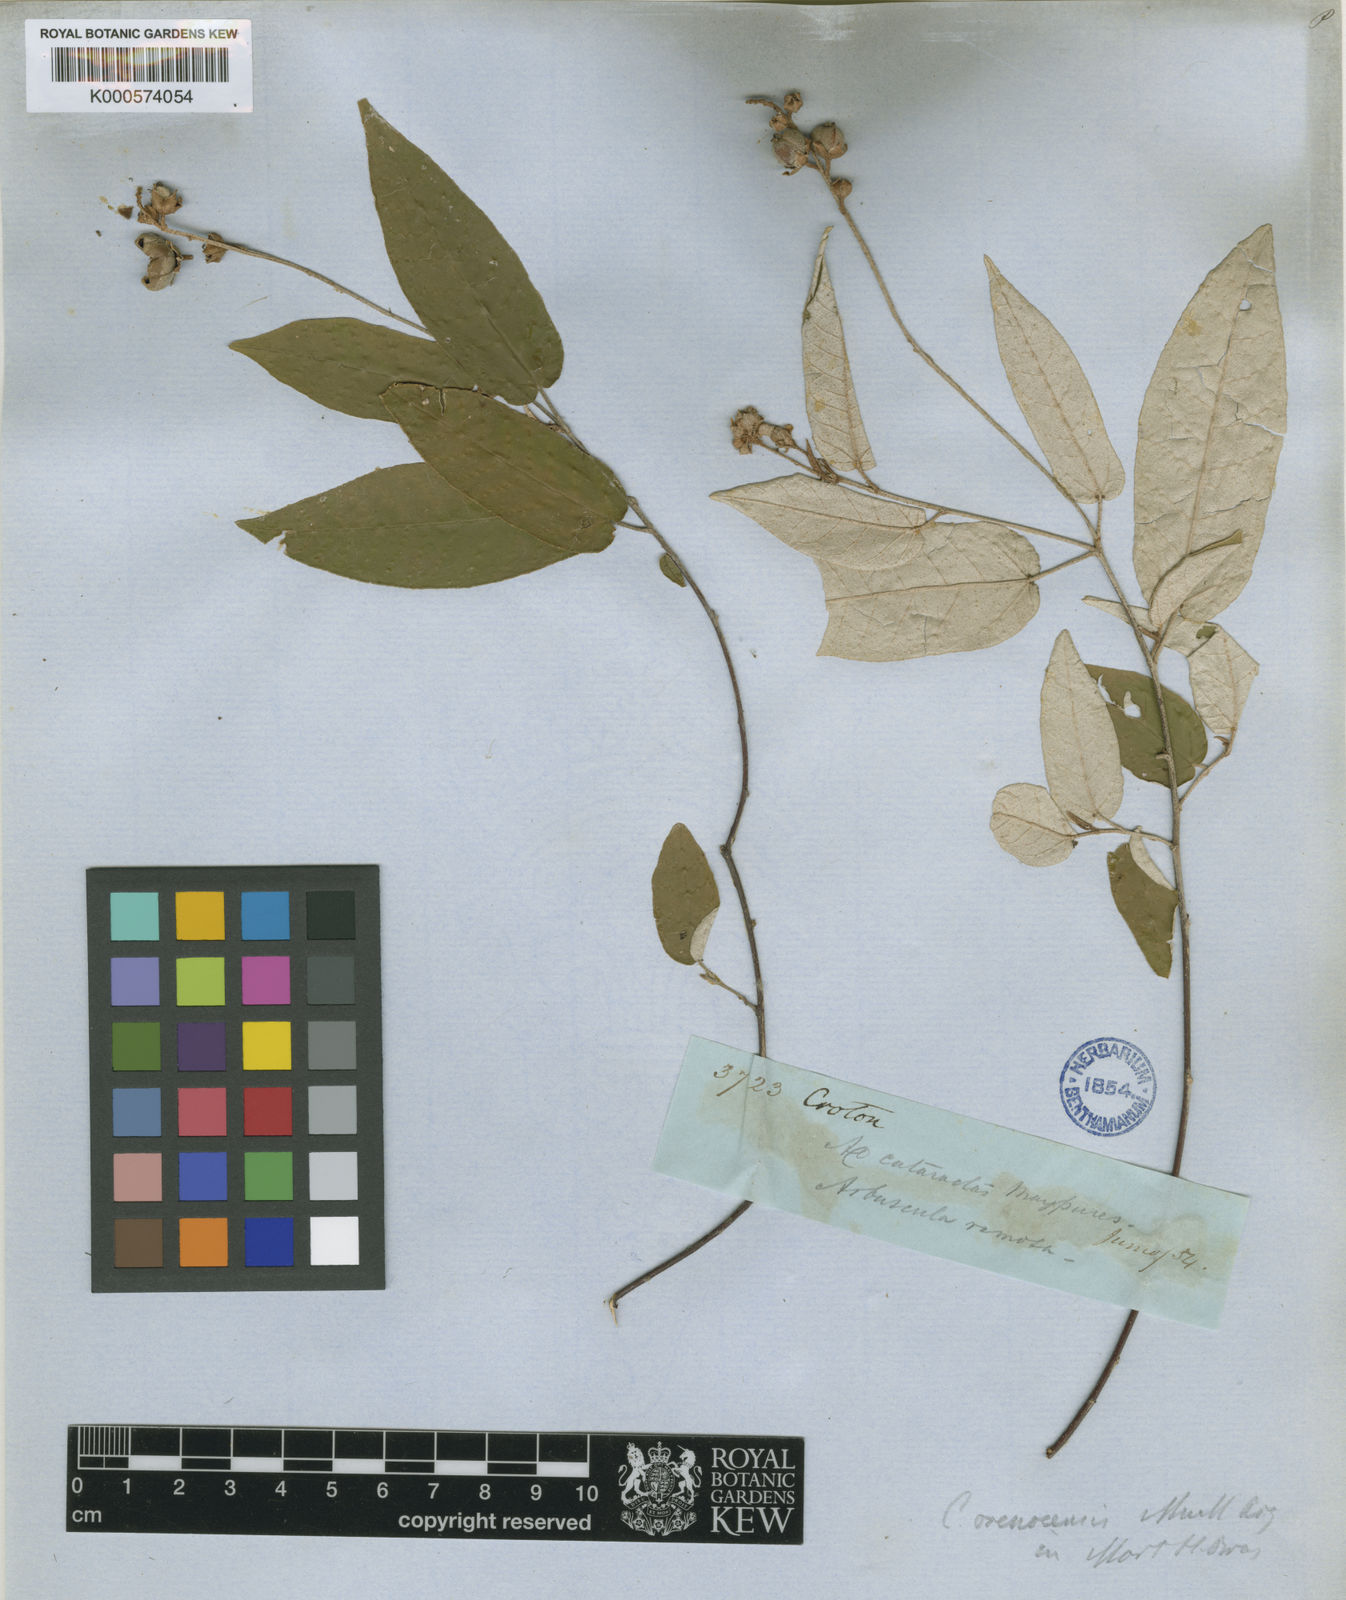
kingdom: Plantae
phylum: Tracheophyta
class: Magnoliopsida
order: Malpighiales
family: Euphorbiaceae
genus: Croton
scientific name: Croton
